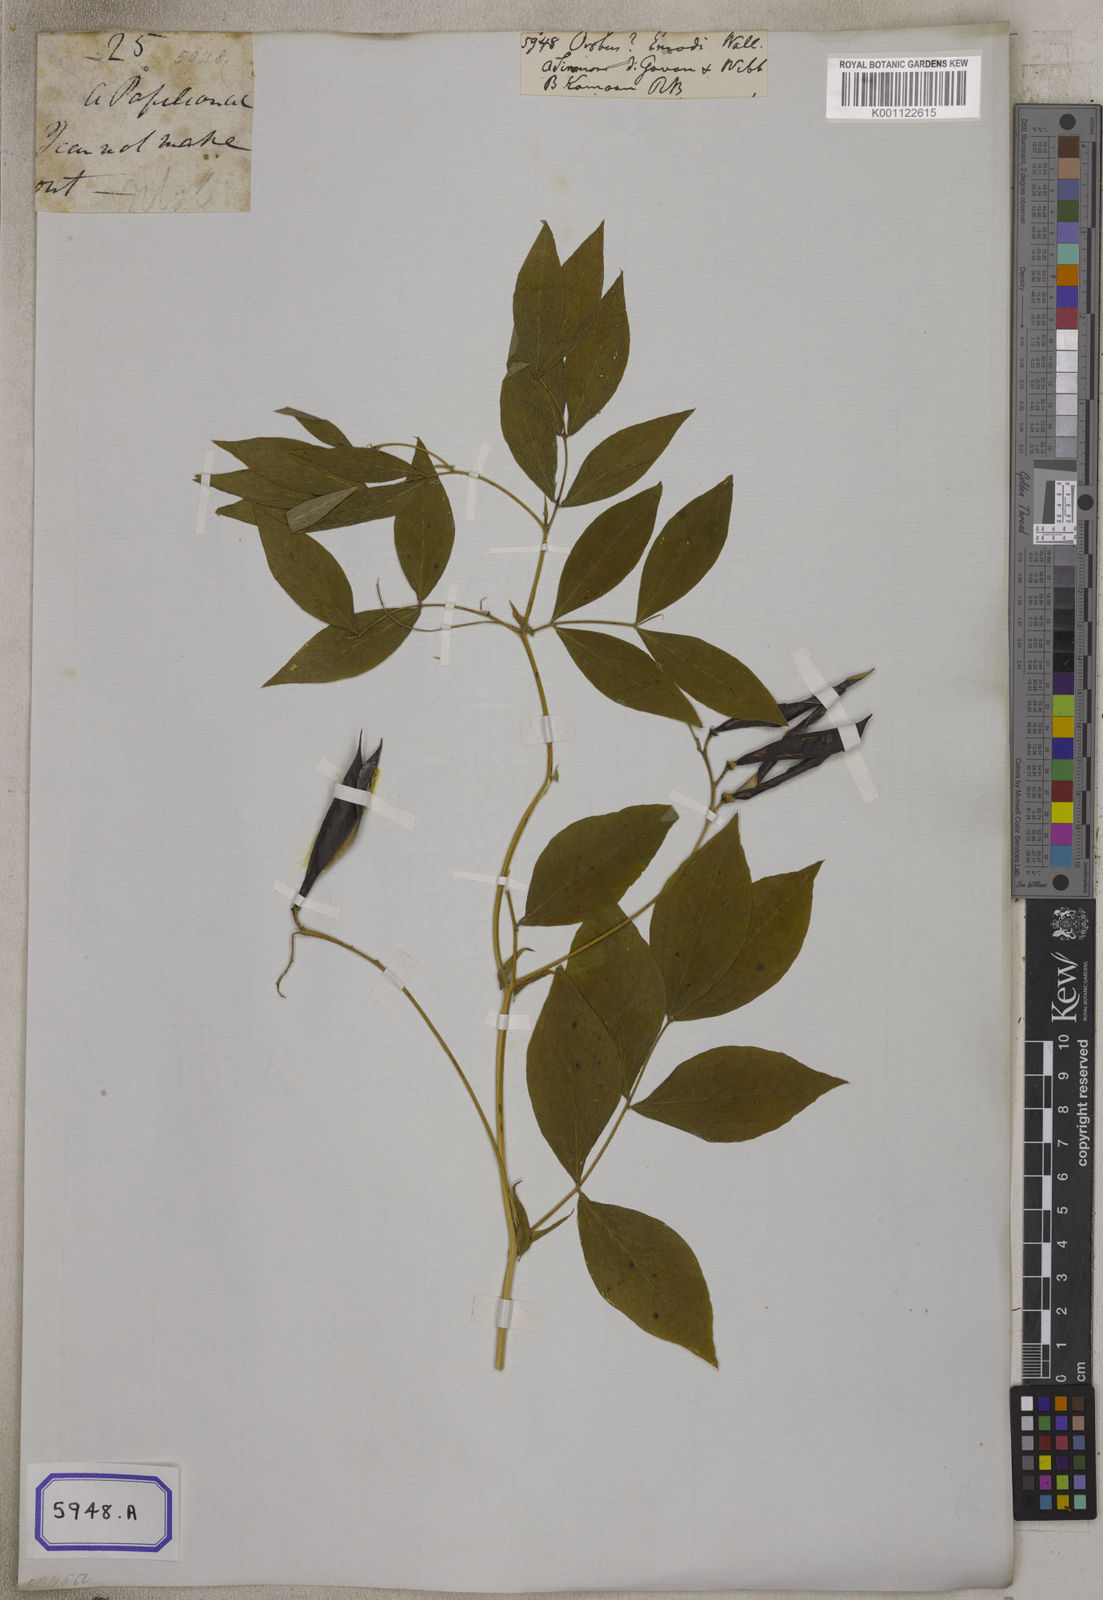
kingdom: Plantae
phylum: Tracheophyta
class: Magnoliopsida
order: Fabales
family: Fabaceae
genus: Lathyrus
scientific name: Lathyrus
